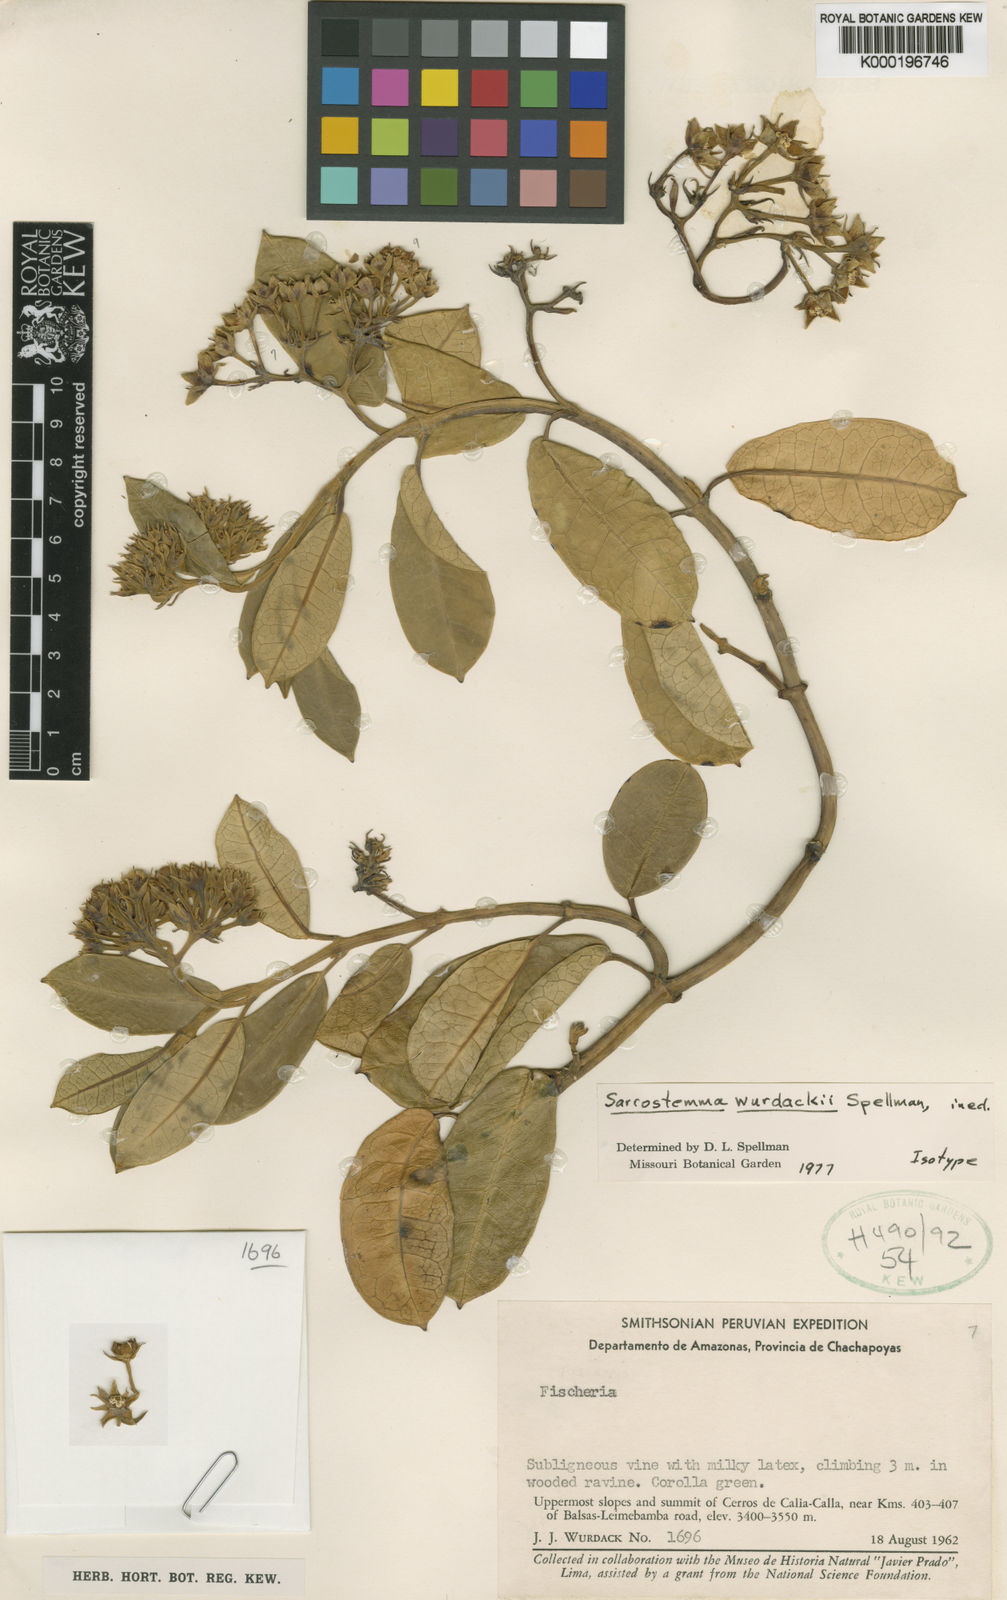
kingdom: Plantae
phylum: Tracheophyta
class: Magnoliopsida
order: Gentianales
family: Apocynaceae
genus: Funastrum
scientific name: Funastrum
